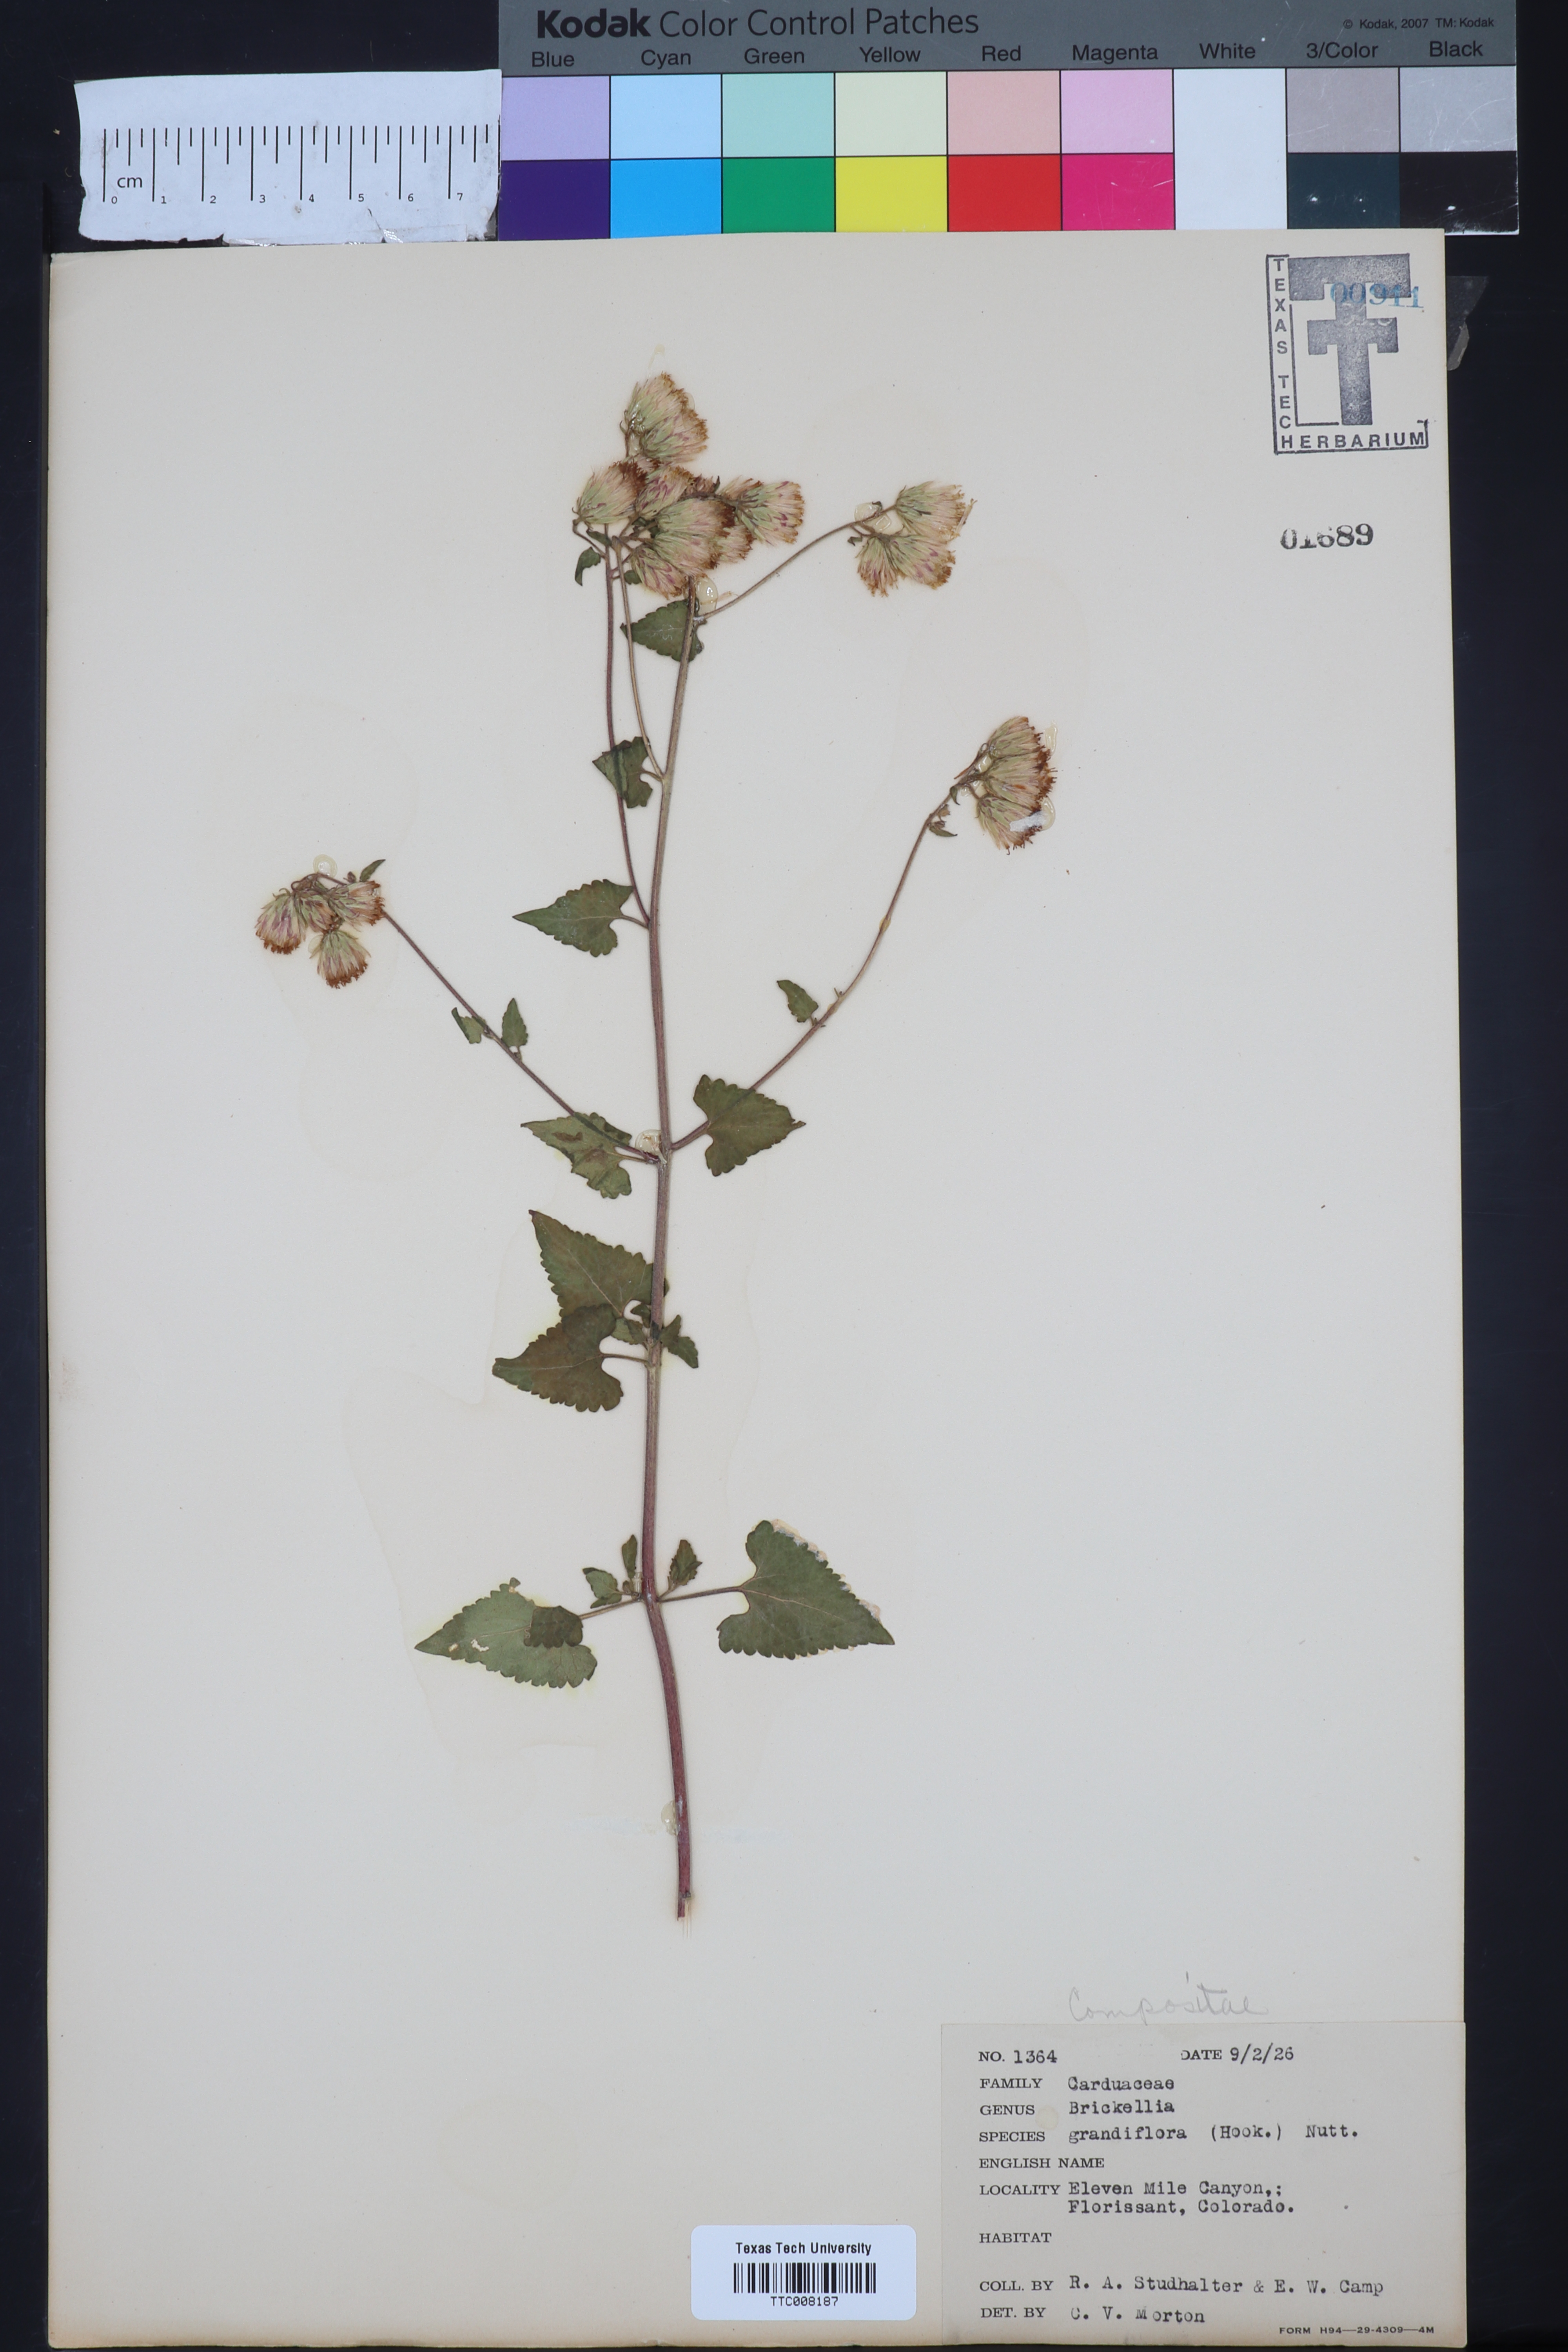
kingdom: Plantae
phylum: Tracheophyta
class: Magnoliopsida
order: Asterales
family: Asteraceae
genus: Brickellia
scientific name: Brickellia grandiflora
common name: Large-flowered brickellia
